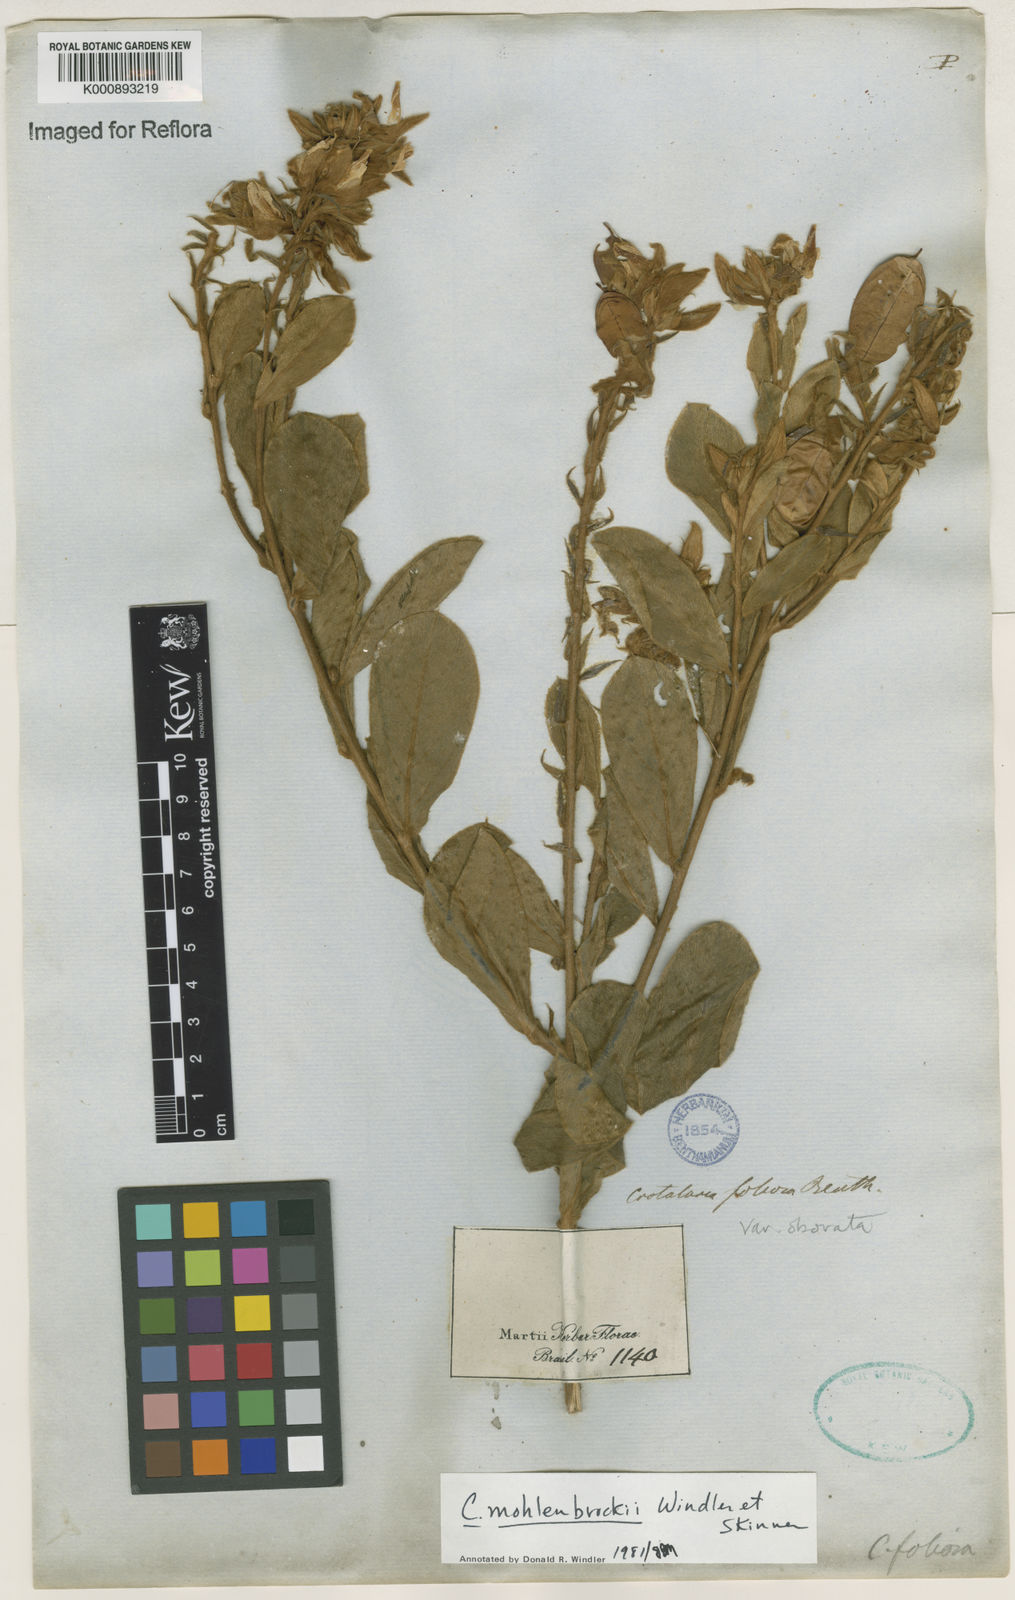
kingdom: Plantae
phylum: Tracheophyta
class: Magnoliopsida
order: Fabales
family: Fabaceae
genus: Crotalaria
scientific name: Crotalaria martiana
